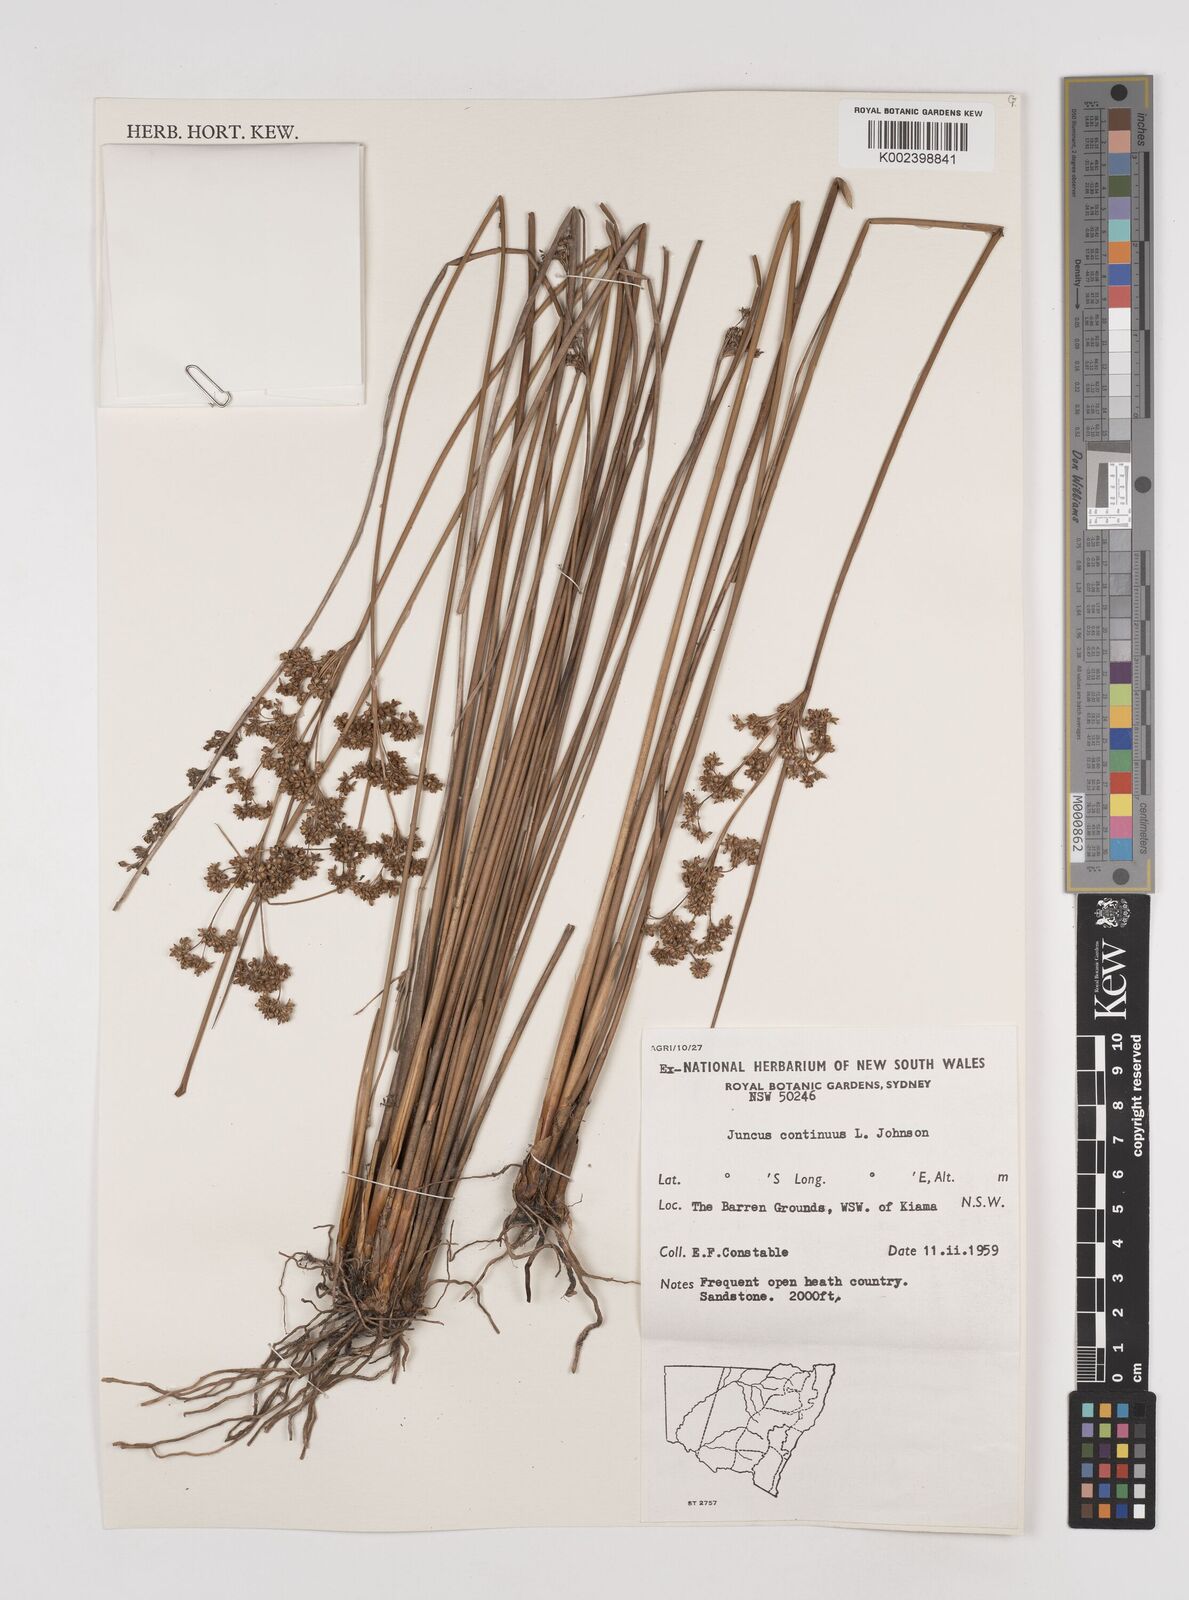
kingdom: Plantae
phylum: Tracheophyta
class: Liliopsida
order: Poales
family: Juncaceae
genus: Juncus
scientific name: Juncus continuus
